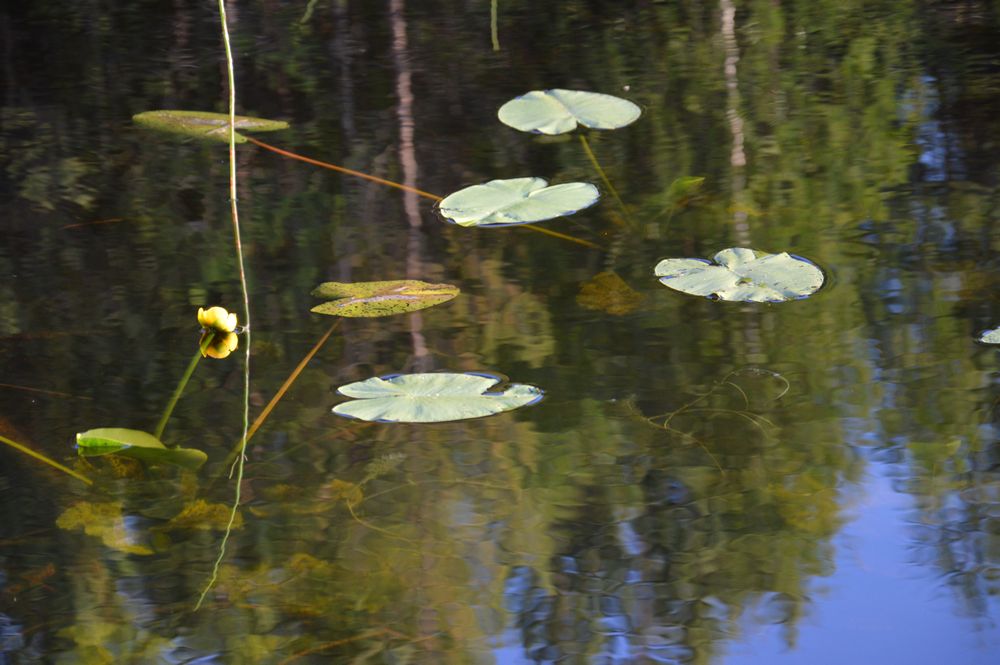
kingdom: Plantae
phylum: Tracheophyta
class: Magnoliopsida
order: Nymphaeales
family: Nymphaeaceae
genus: Nuphar
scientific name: Nuphar lutea
